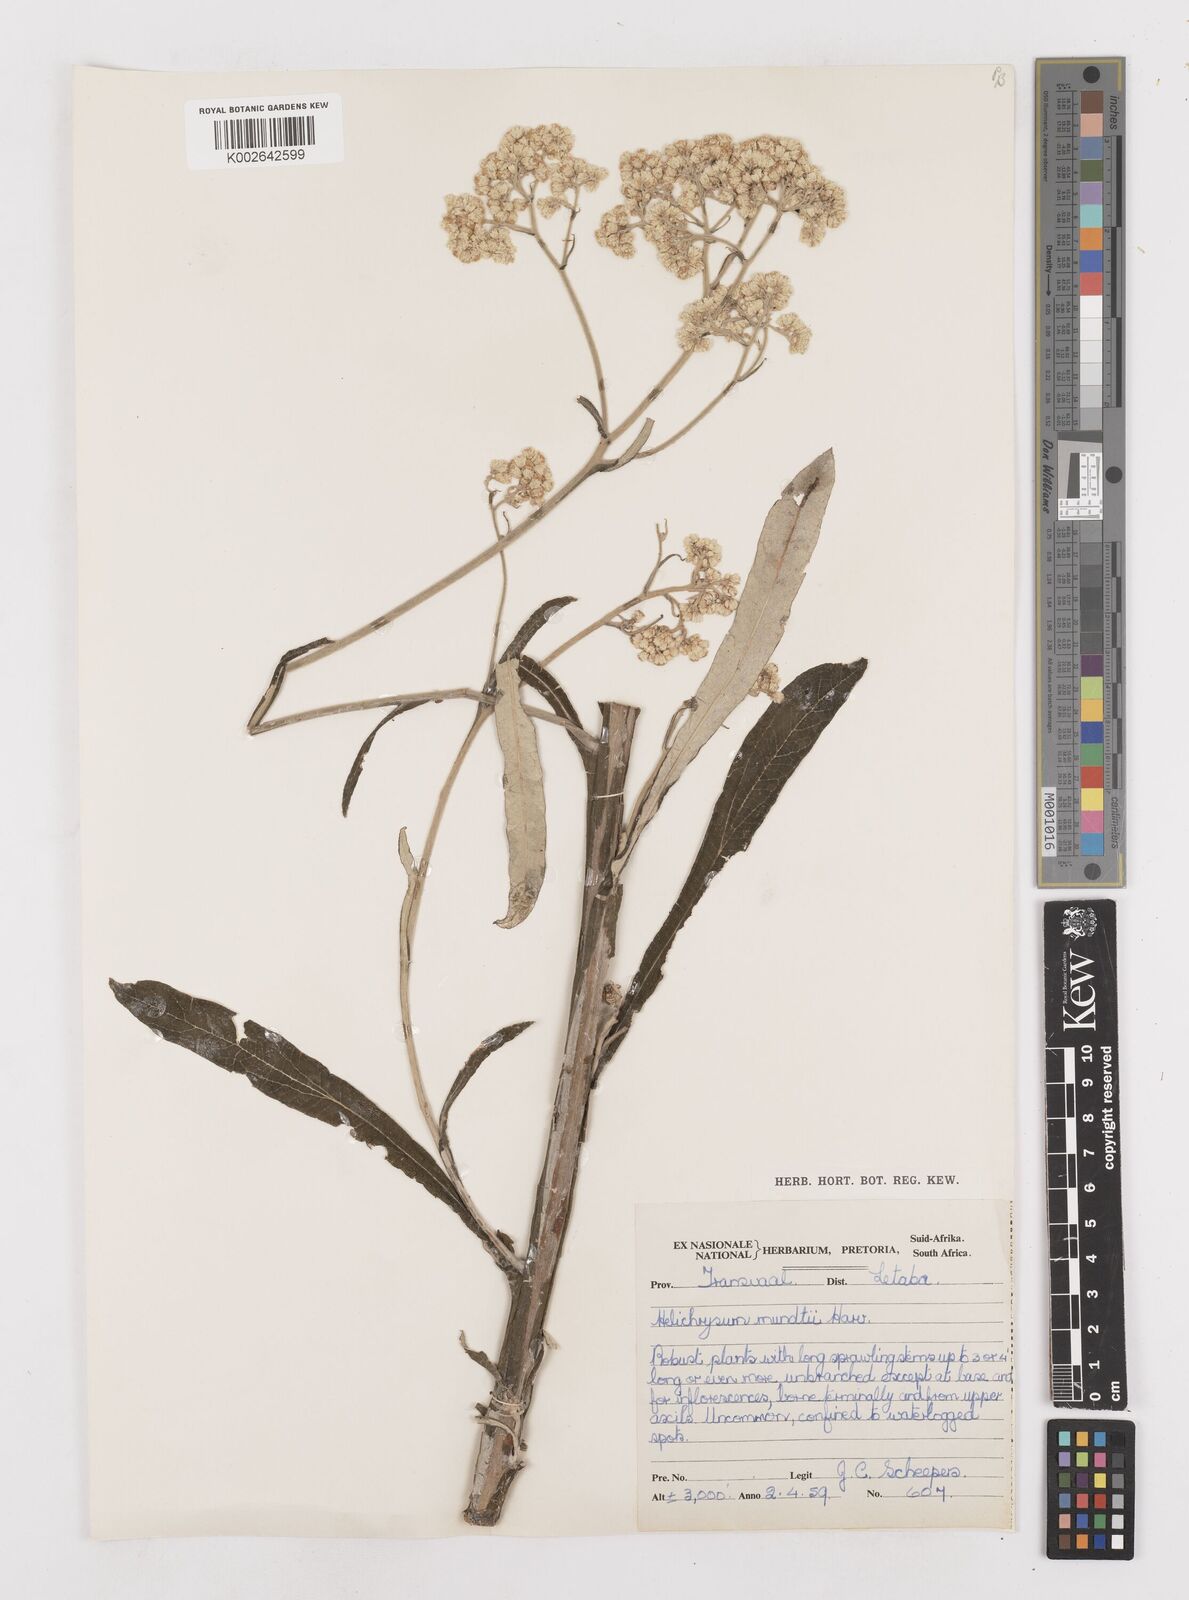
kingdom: Plantae
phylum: Tracheophyta
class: Magnoliopsida
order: Asterales
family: Asteraceae
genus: Helichrysum
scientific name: Helichrysum mundii
